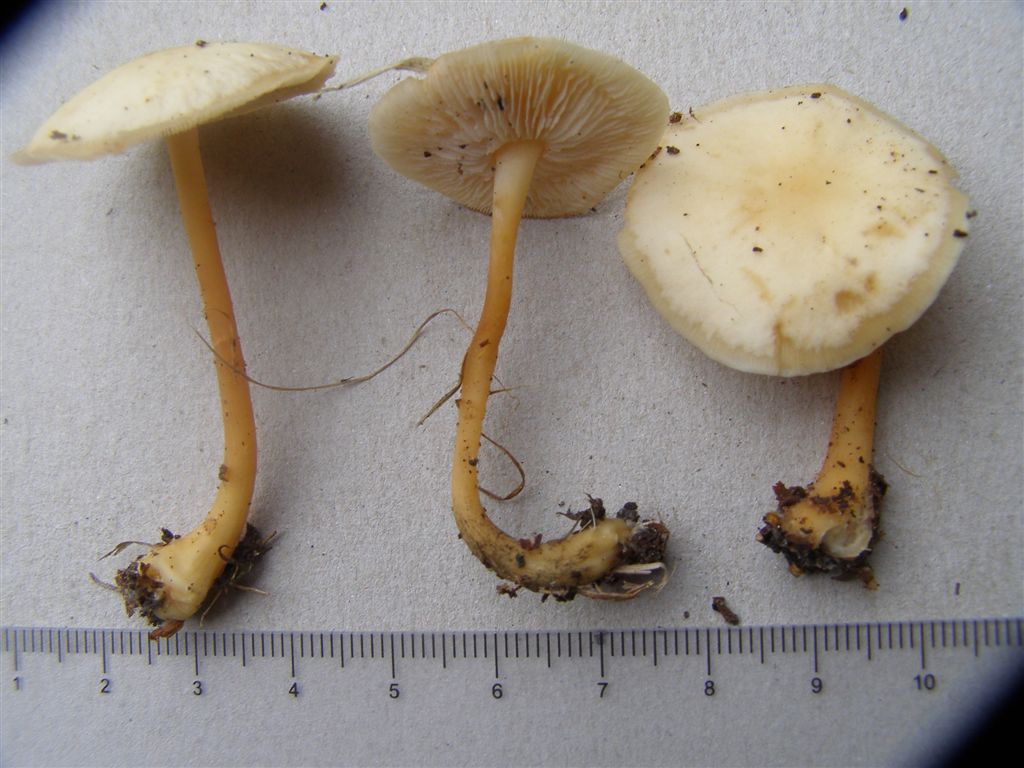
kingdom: Fungi
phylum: Basidiomycota
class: Agaricomycetes
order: Agaricales
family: Omphalotaceae
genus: Gymnopus
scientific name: Gymnopus aquosus
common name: bleg fladhat
